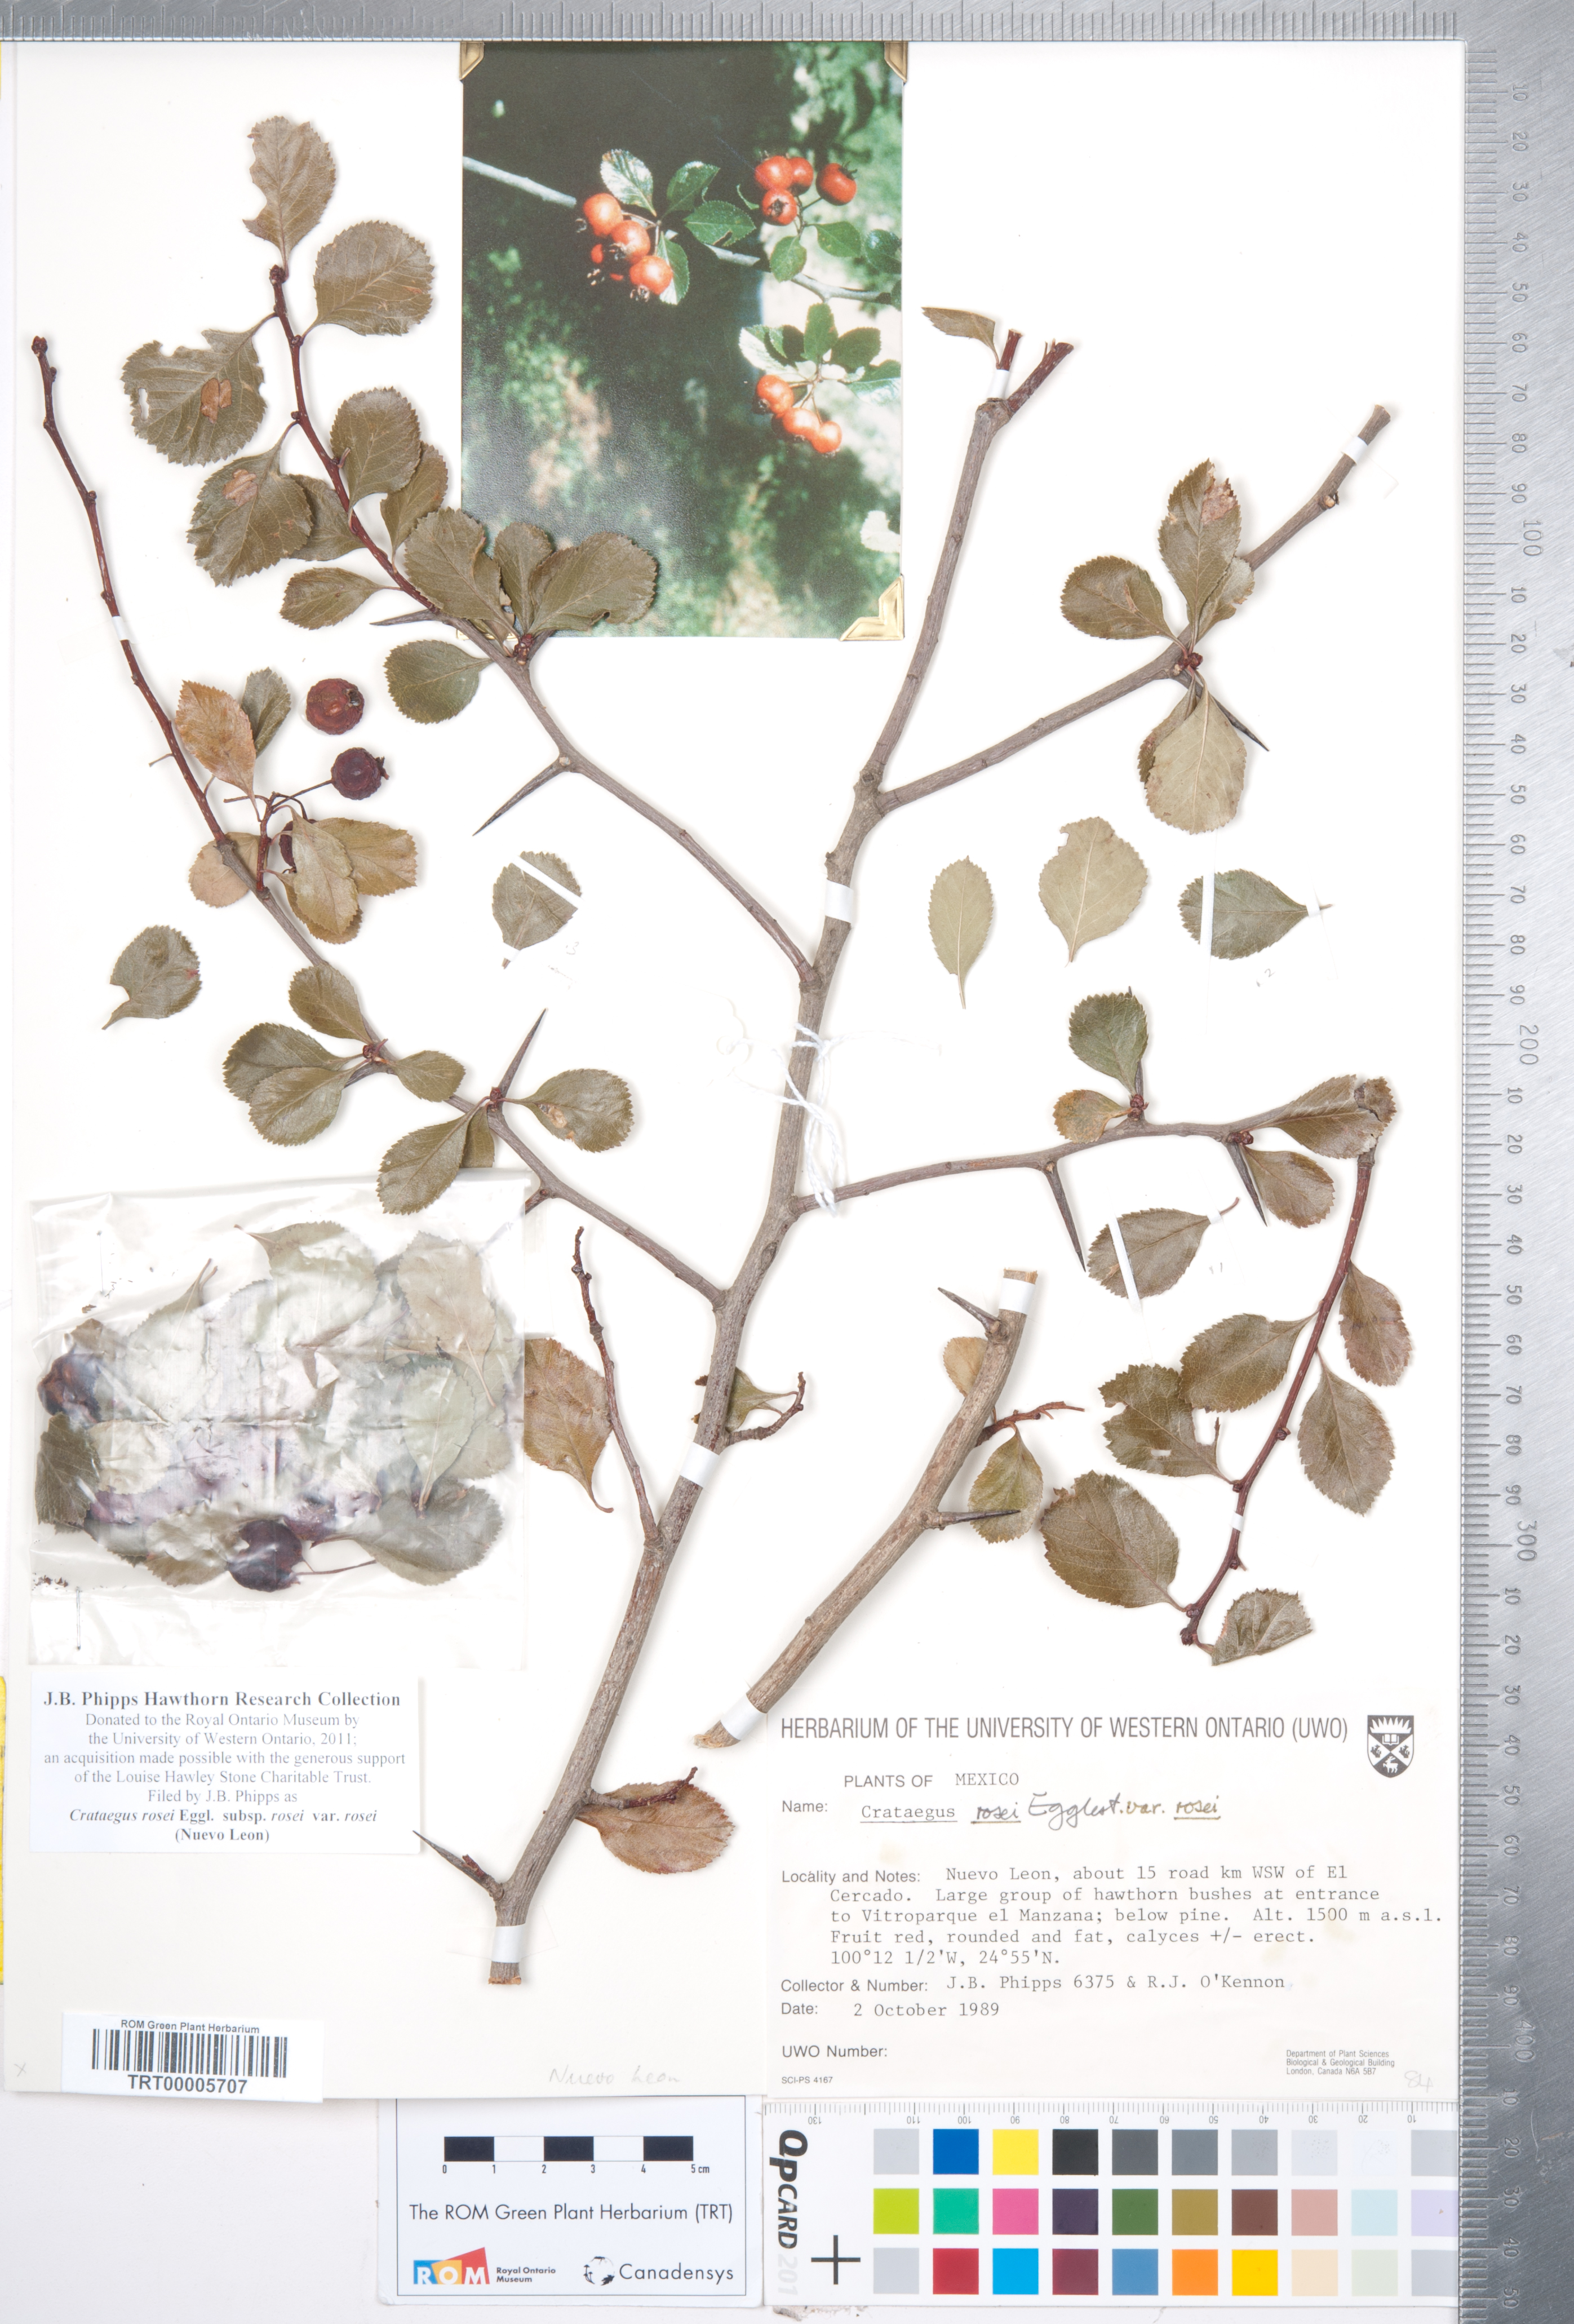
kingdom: Plantae
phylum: Tracheophyta
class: Magnoliopsida
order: Rosales
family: Rosaceae
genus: Crataegus
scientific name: Crataegus rosei
